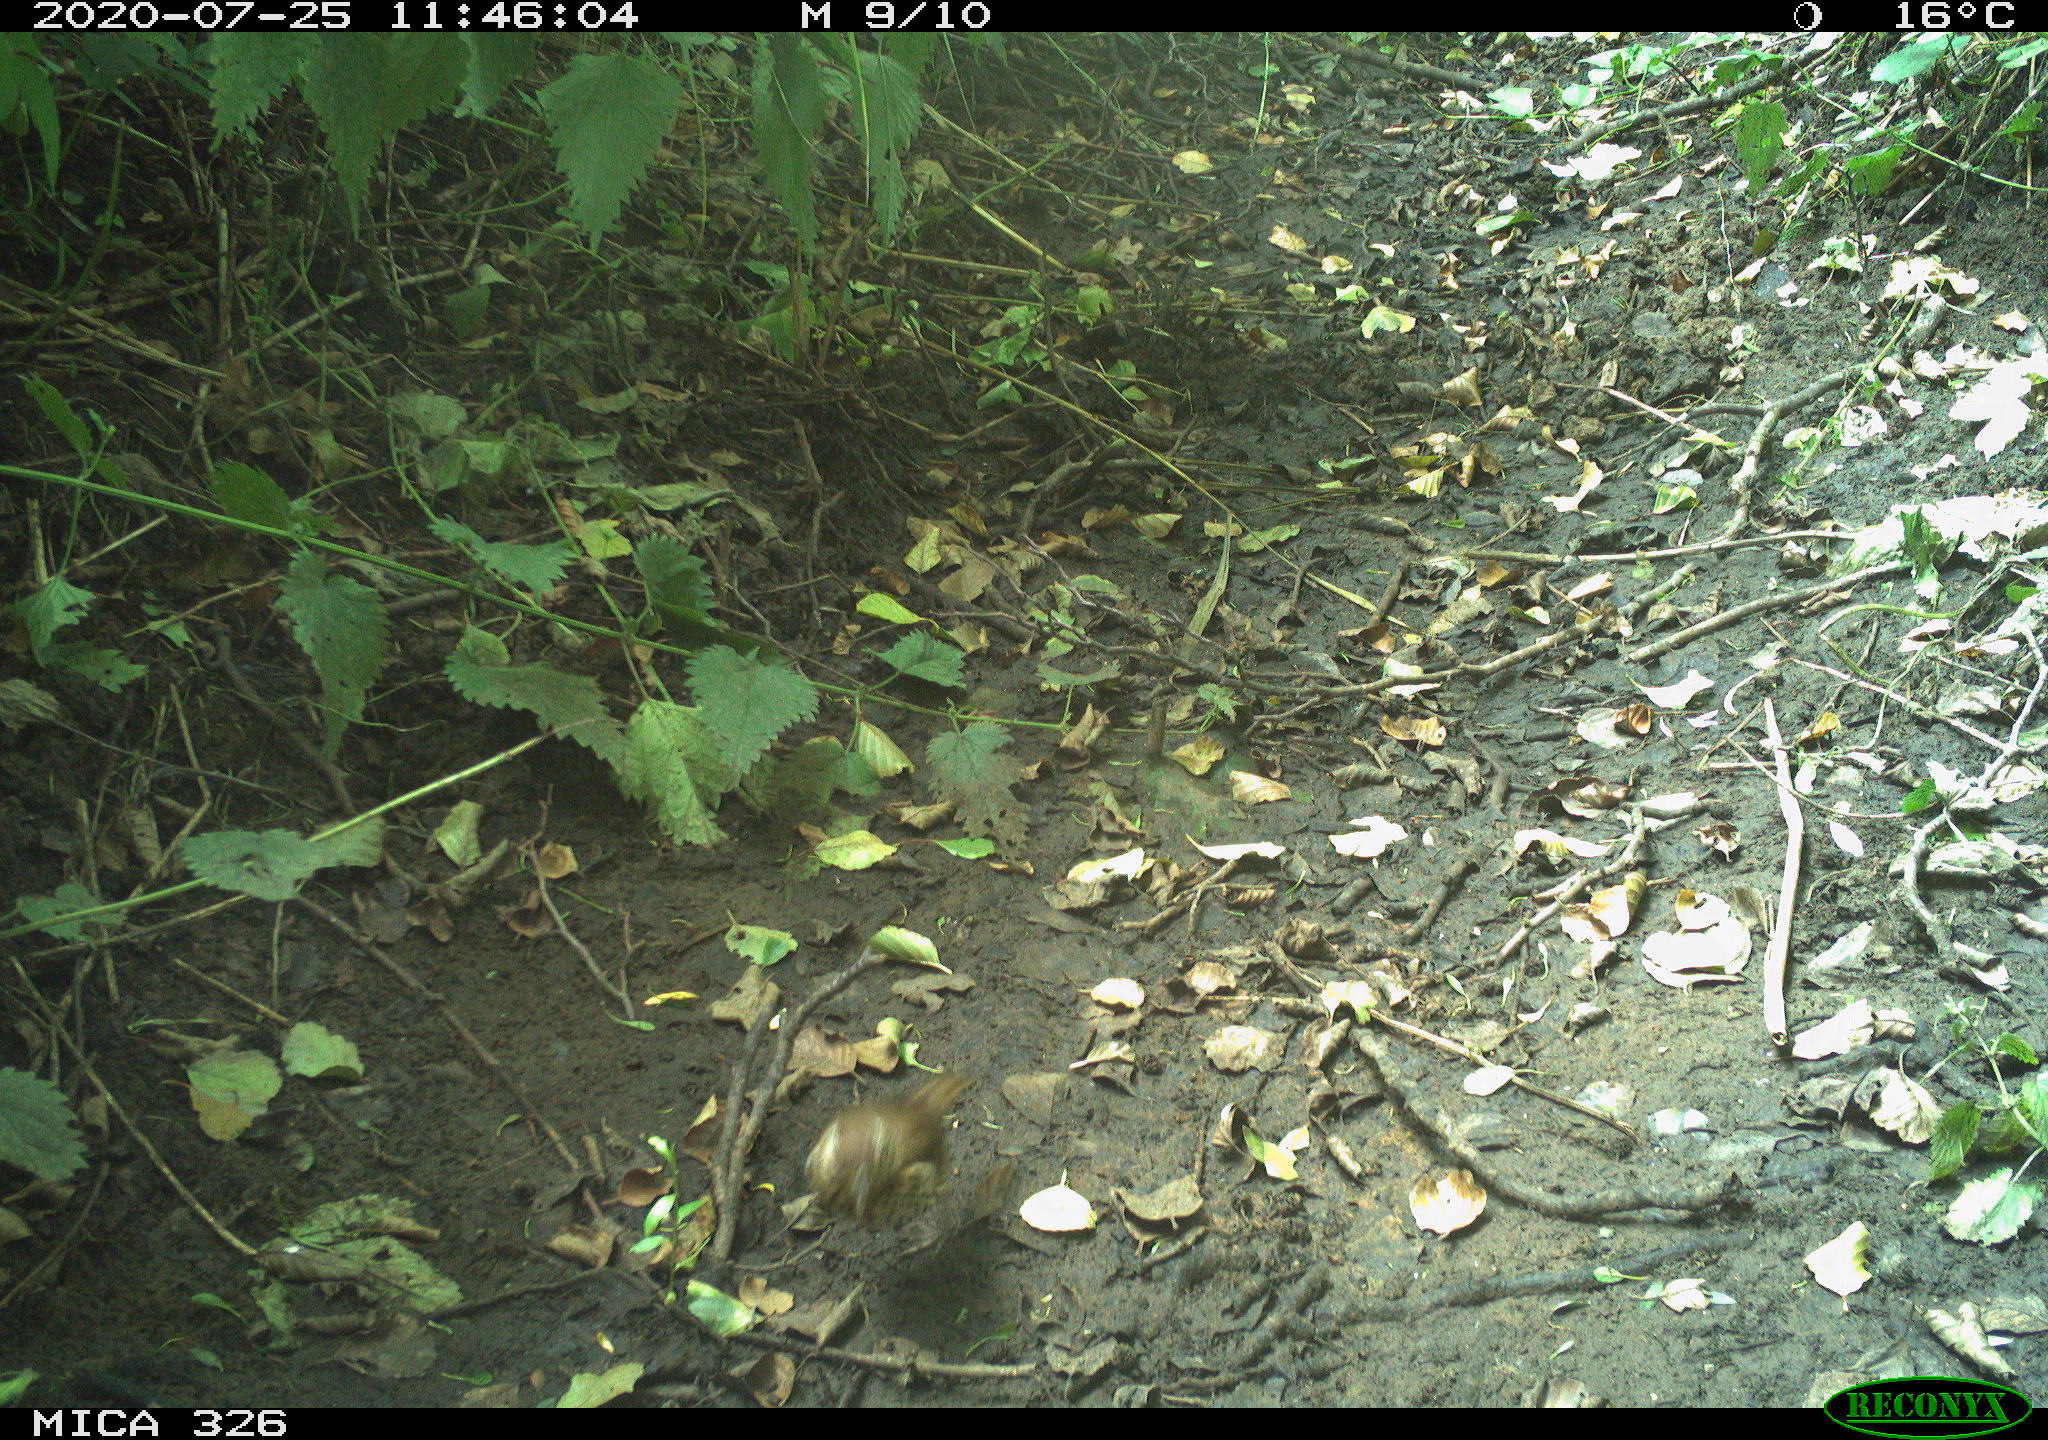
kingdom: Animalia
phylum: Chordata
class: Aves
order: Passeriformes
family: Turdidae
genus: Turdus
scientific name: Turdus philomelos
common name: Song thrush
